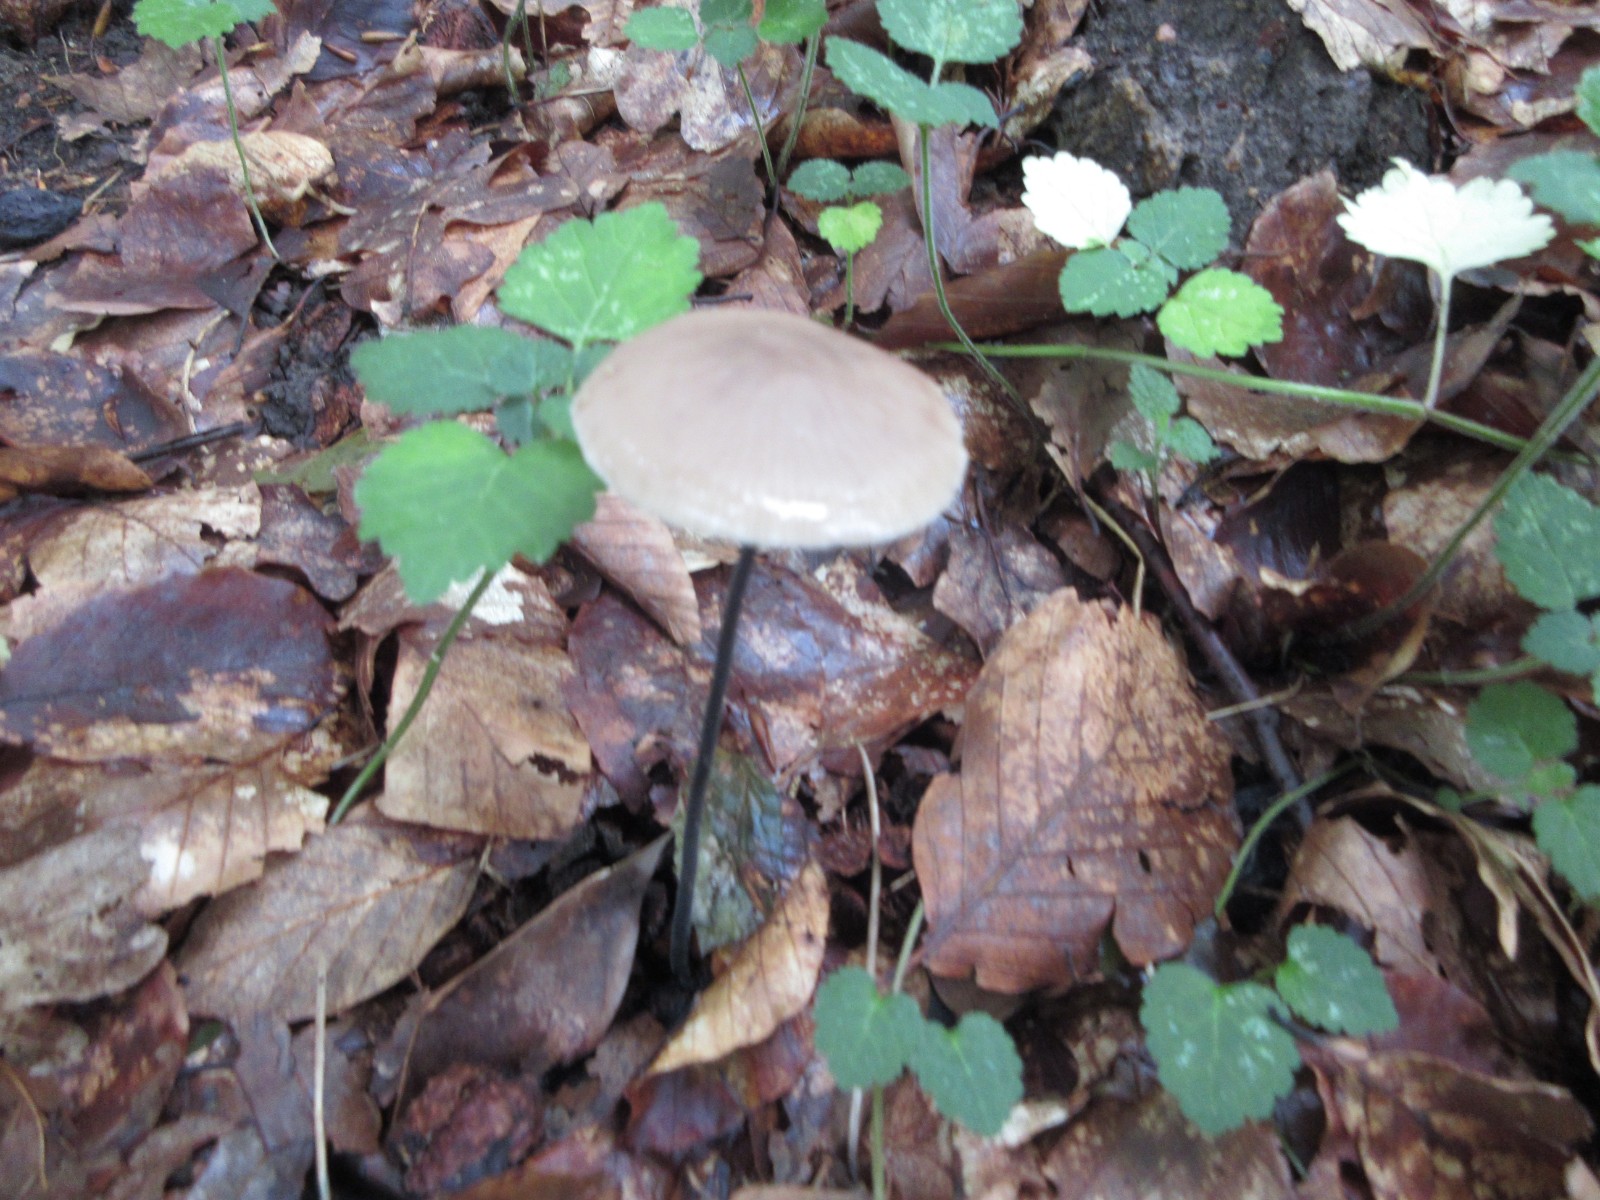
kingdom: Fungi
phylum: Basidiomycota
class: Agaricomycetes
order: Agaricales
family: Omphalotaceae
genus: Mycetinis
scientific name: Mycetinis alliaceus
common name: stor løghat
